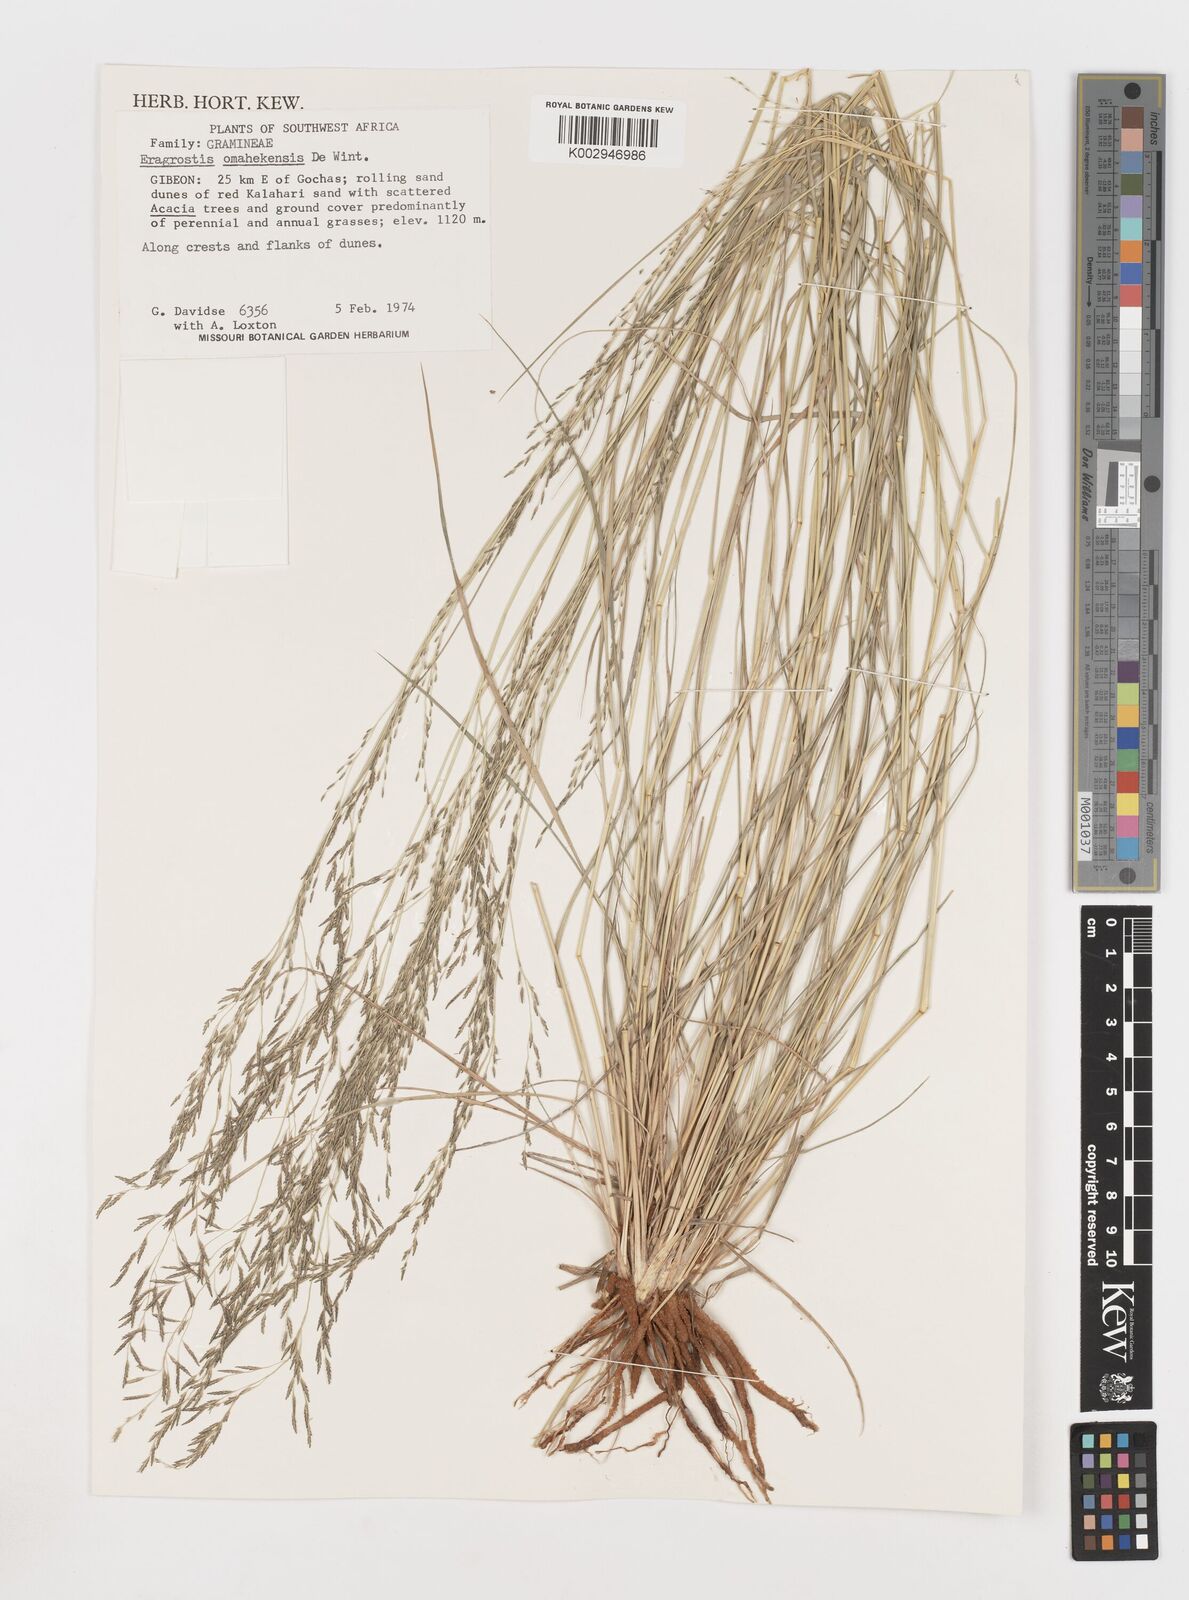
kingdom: Plantae
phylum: Tracheophyta
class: Liliopsida
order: Poales
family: Poaceae
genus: Eragrostis
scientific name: Eragrostis omahekensis
